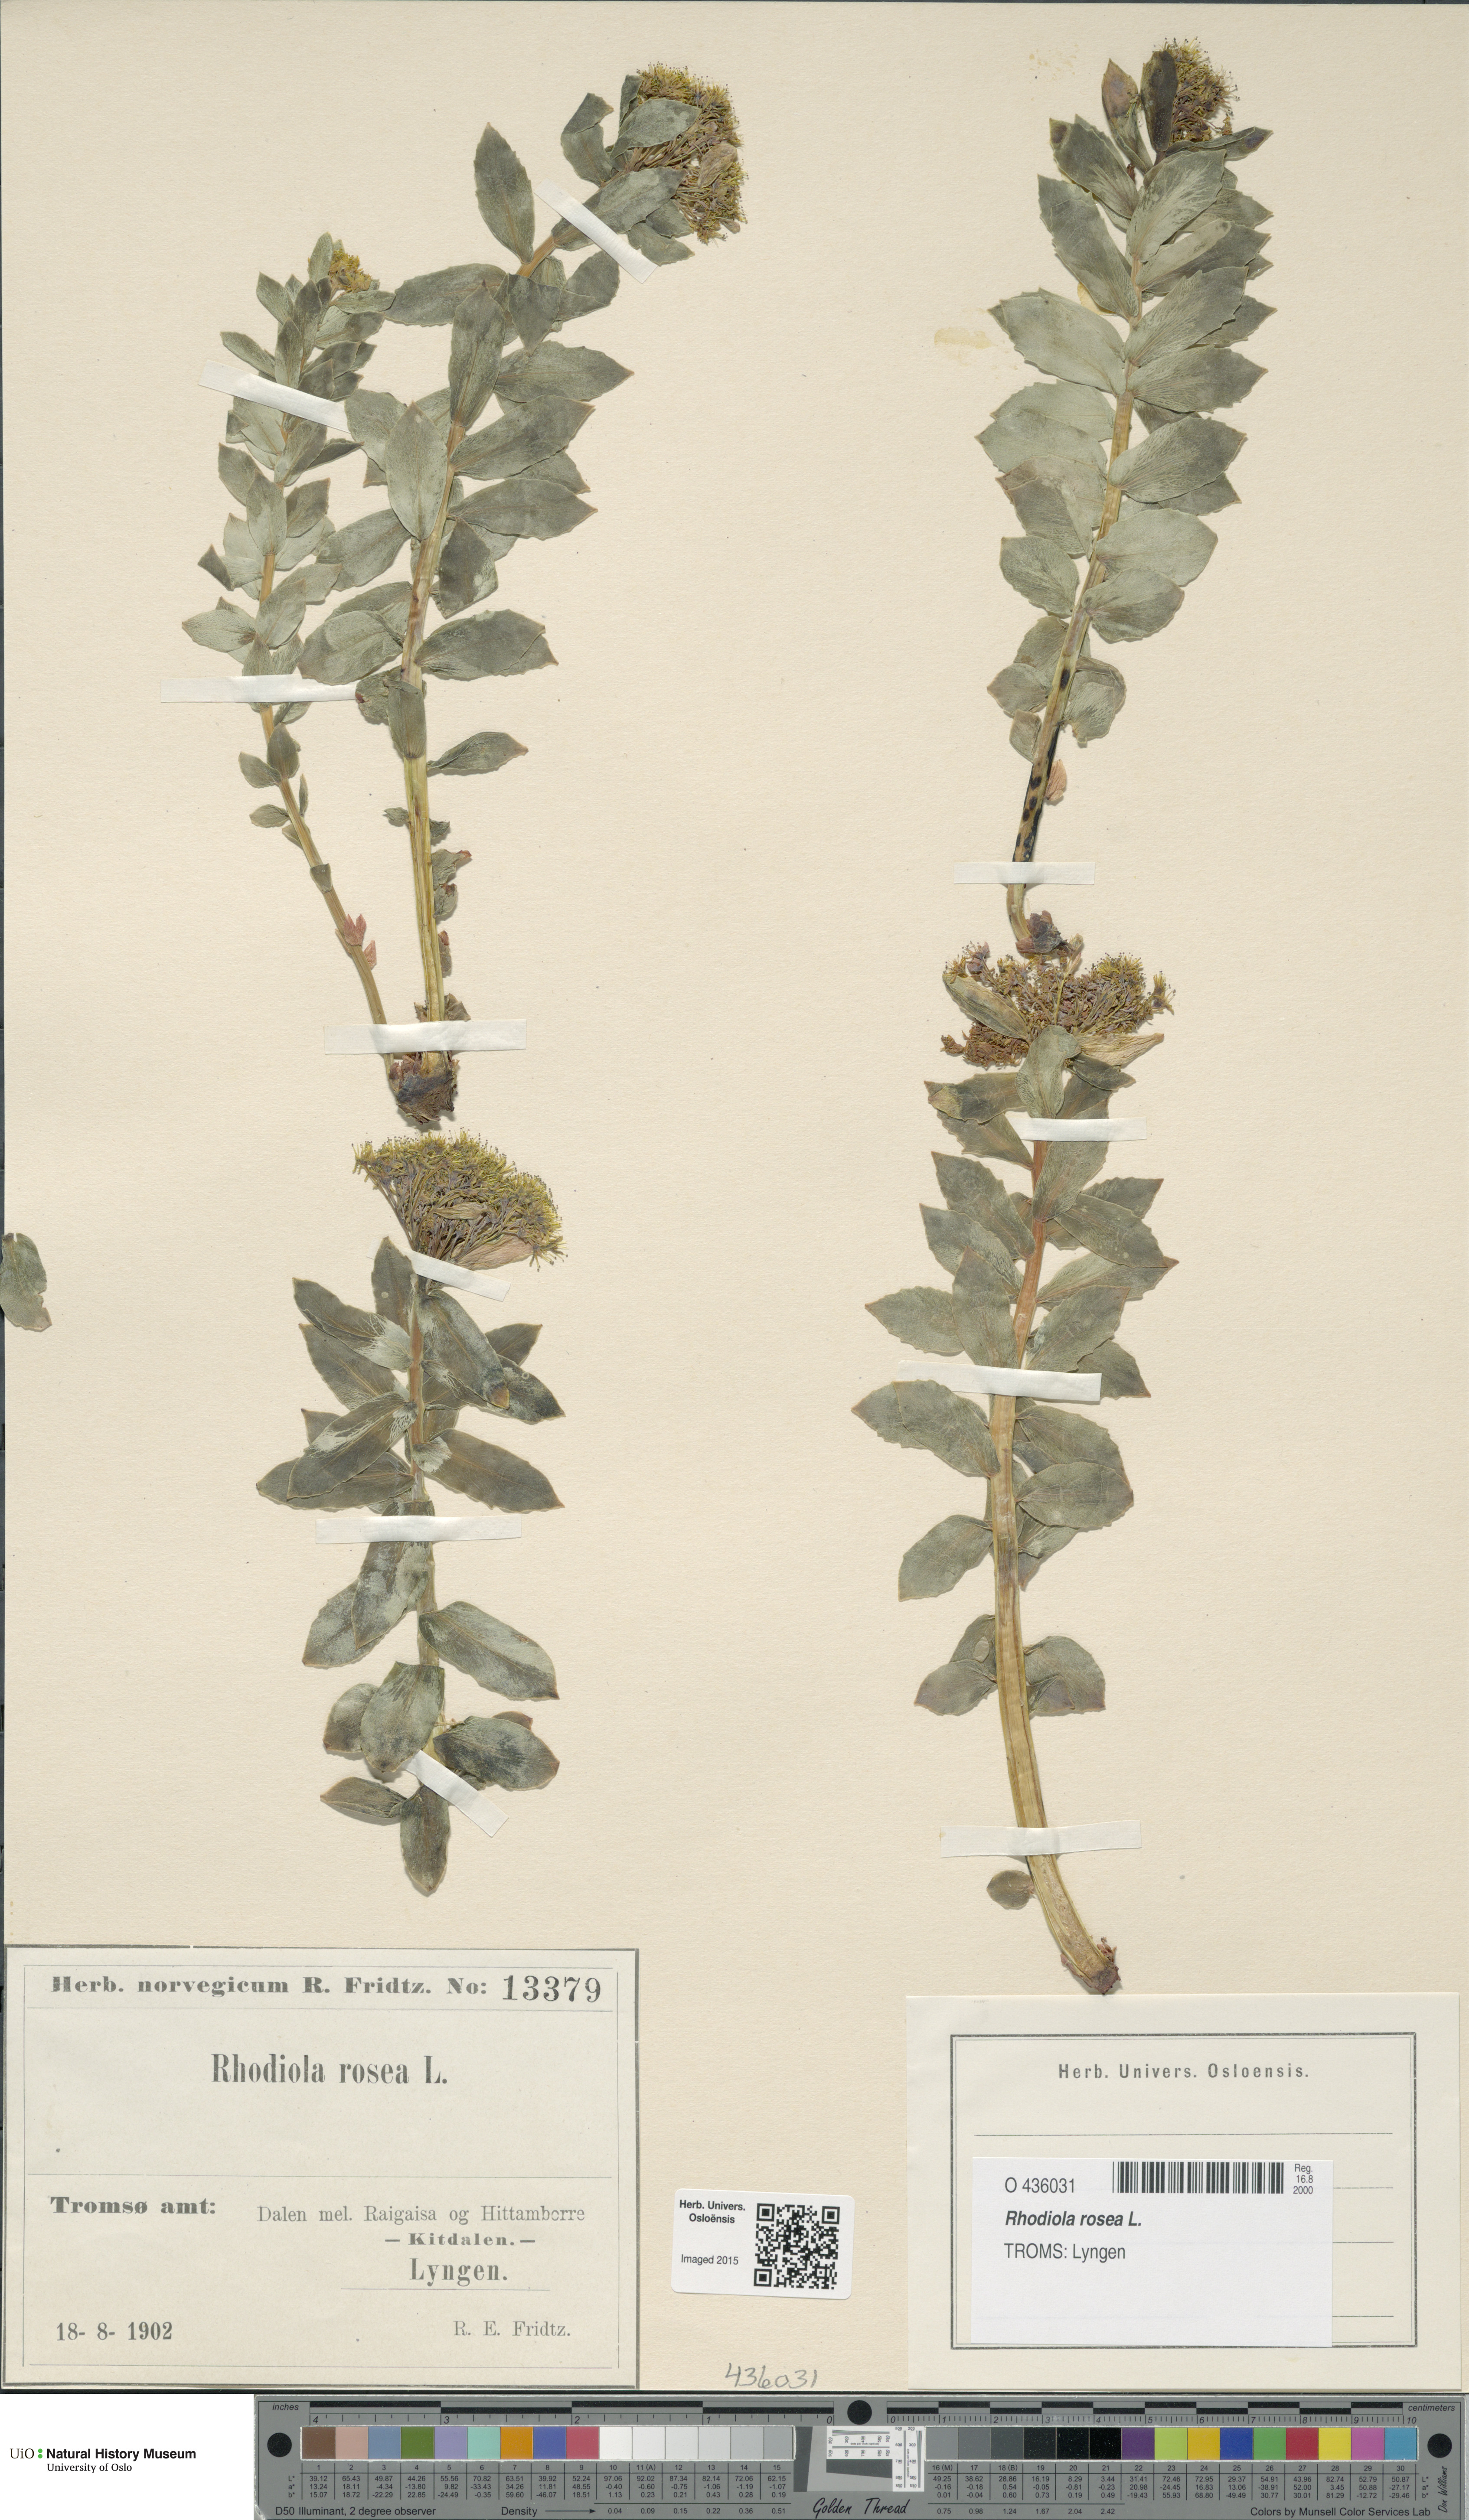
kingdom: Plantae
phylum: Tracheophyta
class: Magnoliopsida
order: Saxifragales
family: Crassulaceae
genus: Rhodiola
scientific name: Rhodiola rosea
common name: Roseroot
